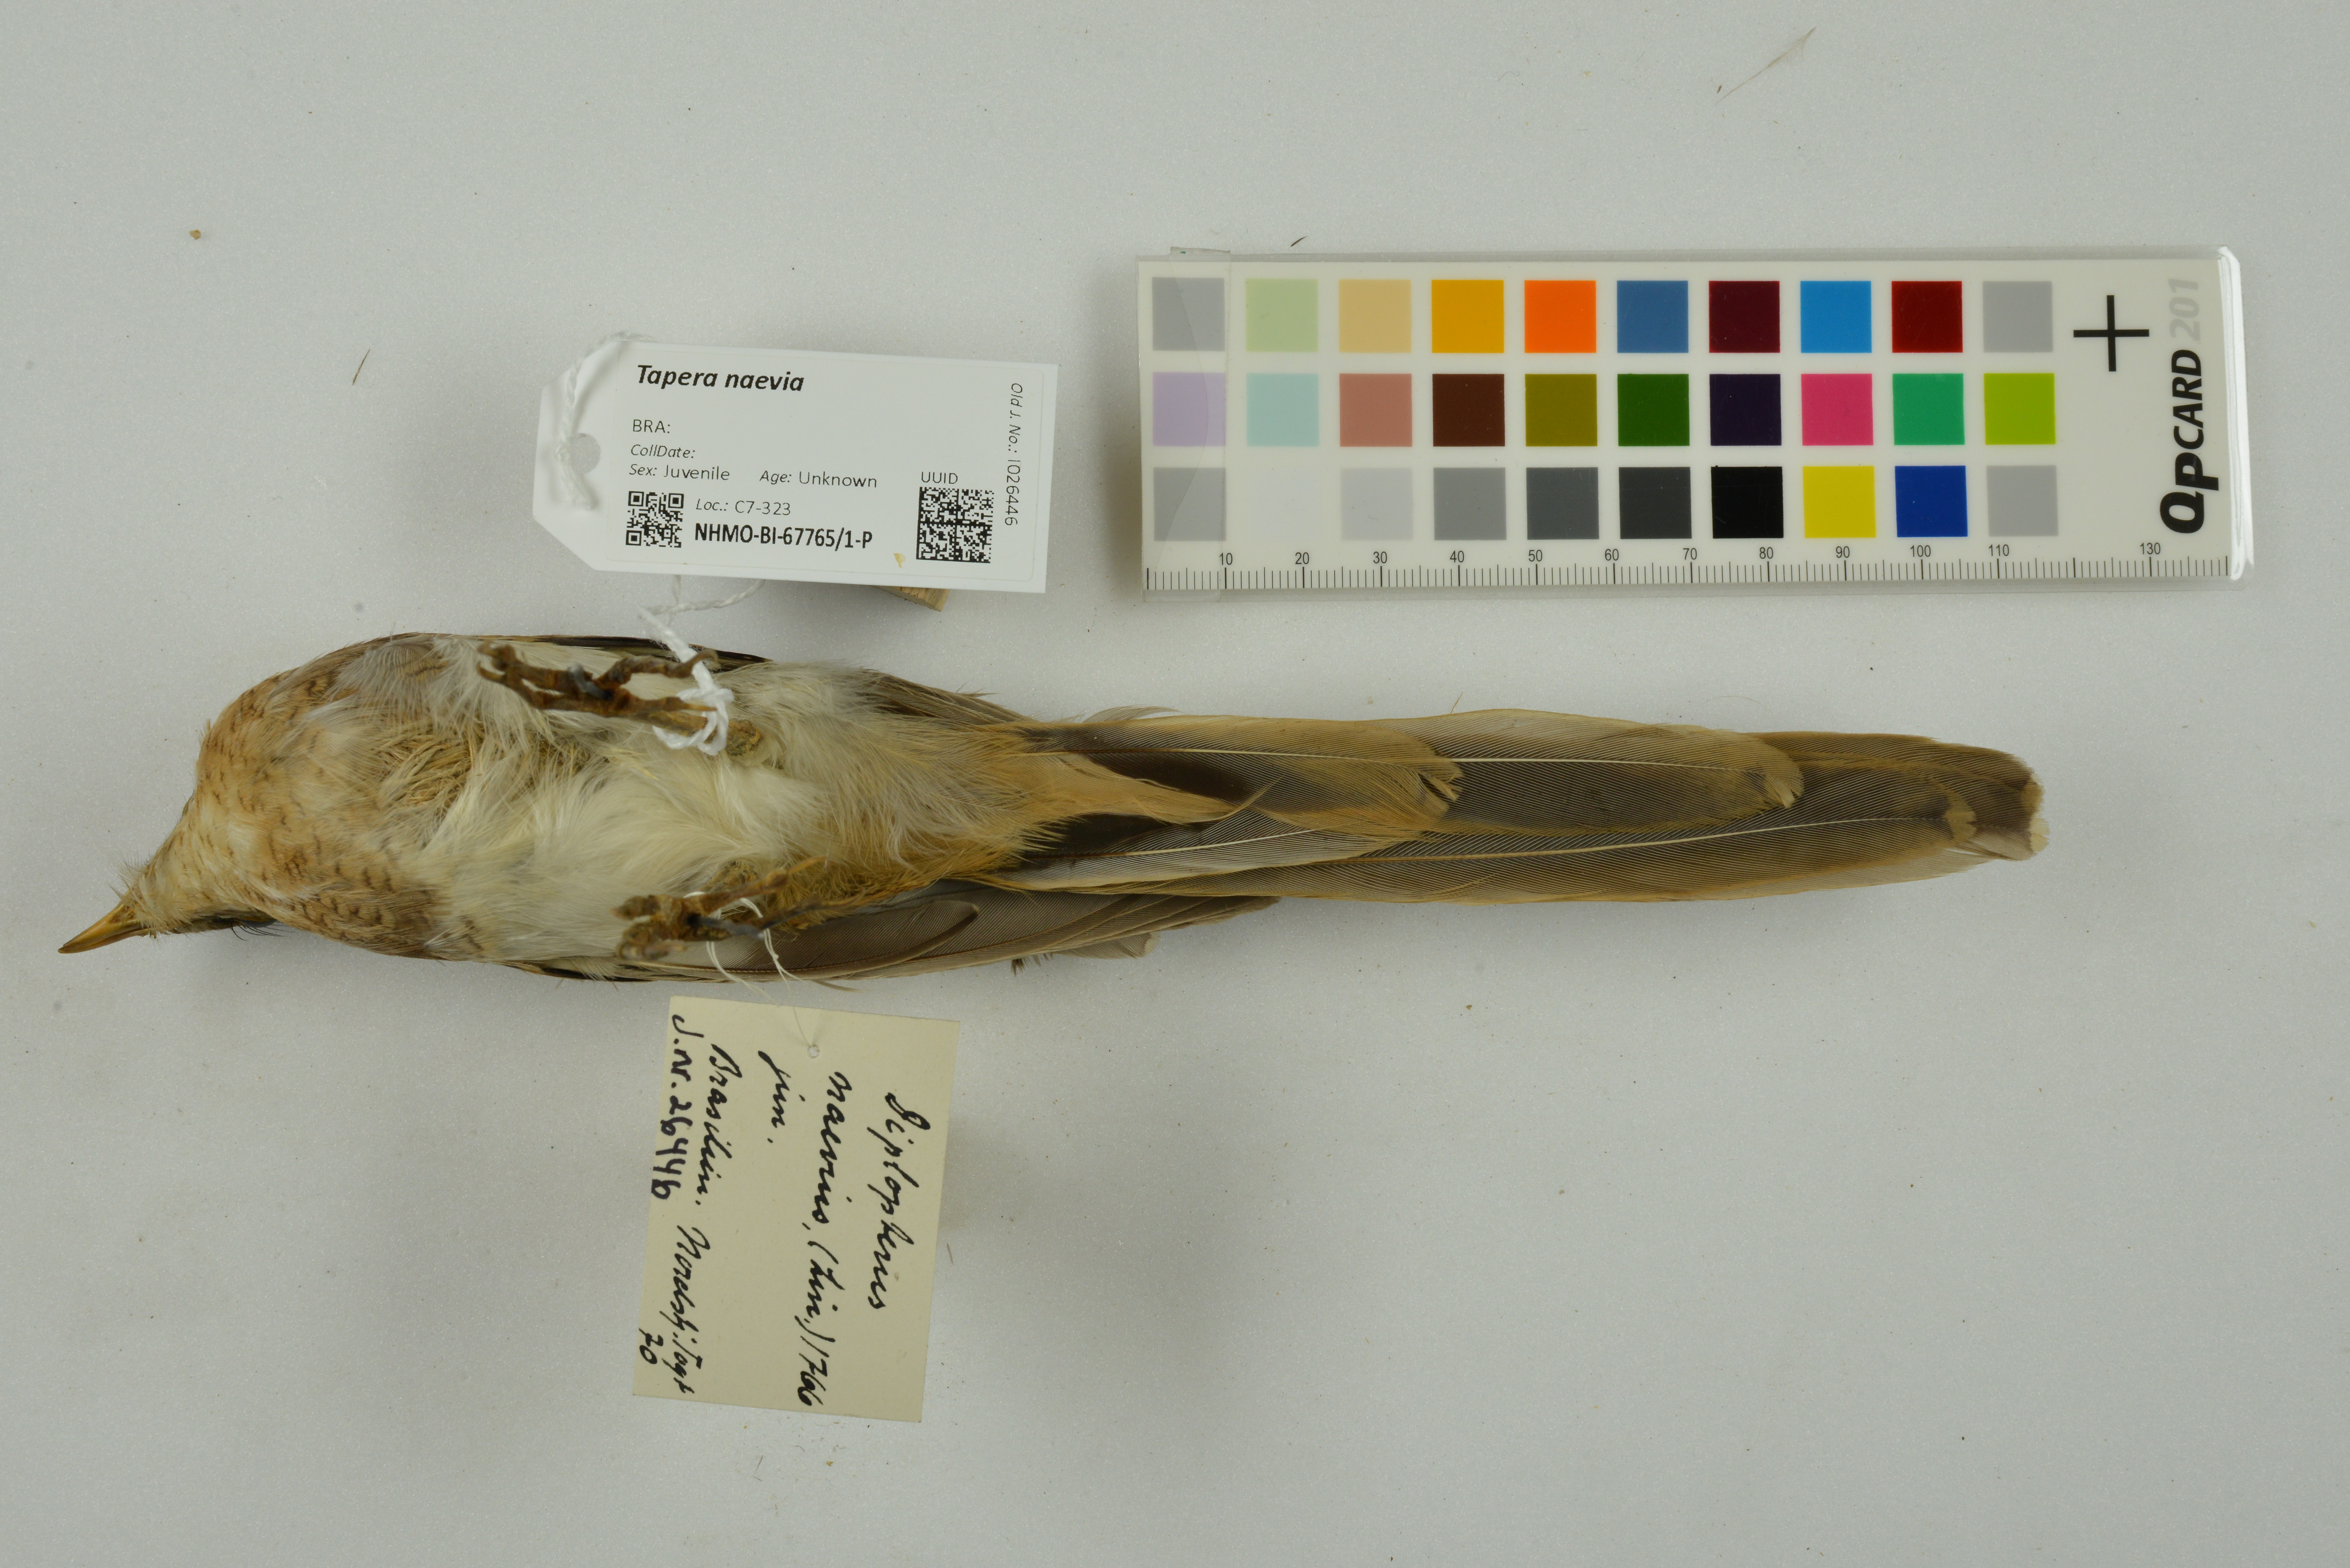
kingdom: Animalia
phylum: Chordata
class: Aves
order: Cuculiformes
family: Cuculidae
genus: Tapera
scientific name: Tapera naevia
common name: Striped cuckoo
